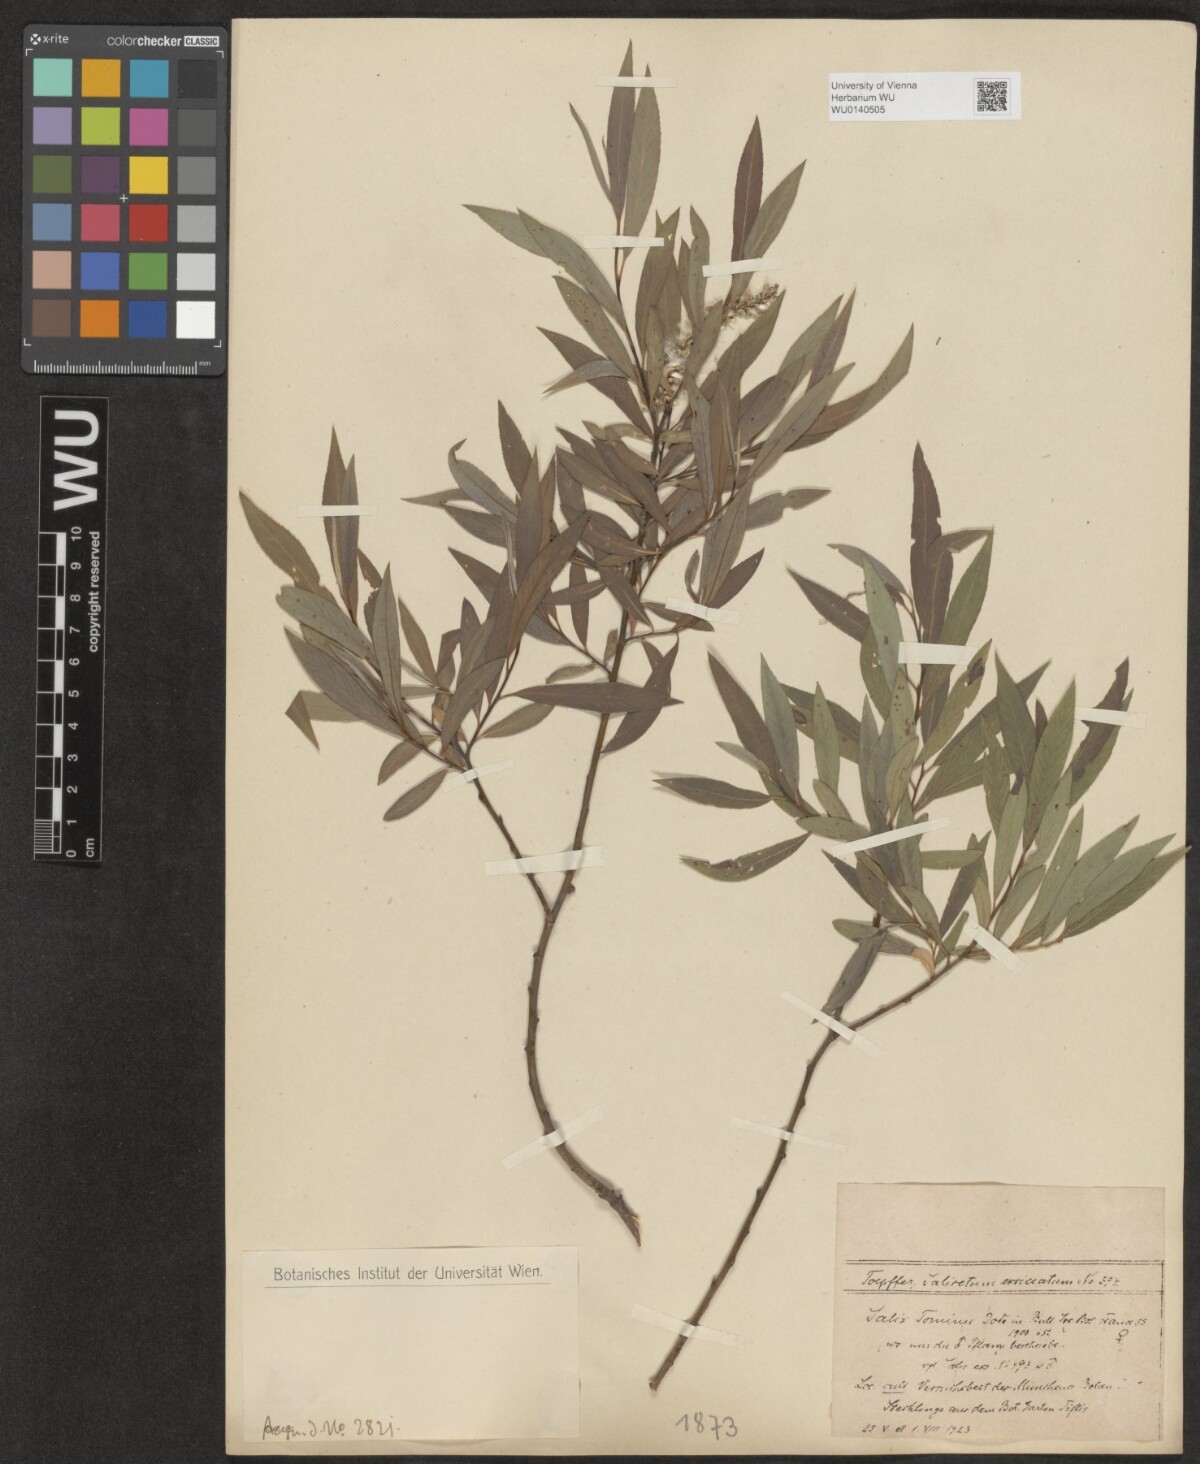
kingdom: Plantae
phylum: Tracheophyta
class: Magnoliopsida
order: Malpighiales
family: Salicaceae
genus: Salix
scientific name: Salix tominii
